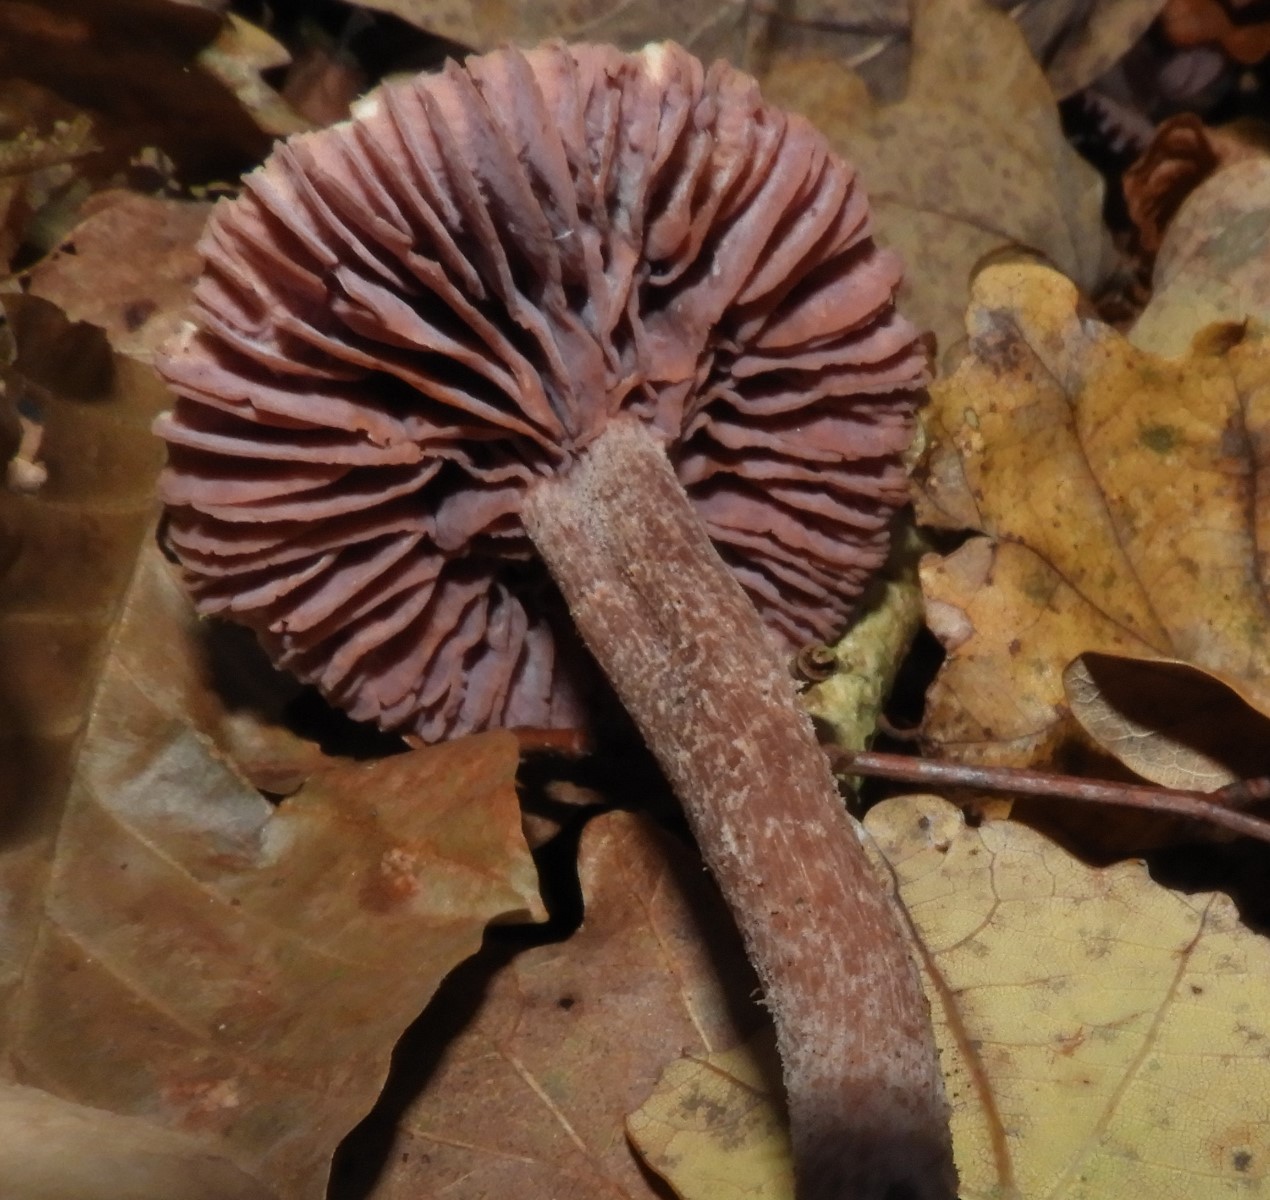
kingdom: Fungi
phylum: Basidiomycota
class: Agaricomycetes
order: Agaricales
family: Hydnangiaceae
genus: Laccaria
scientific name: Laccaria amethystina
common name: violet ametysthat
